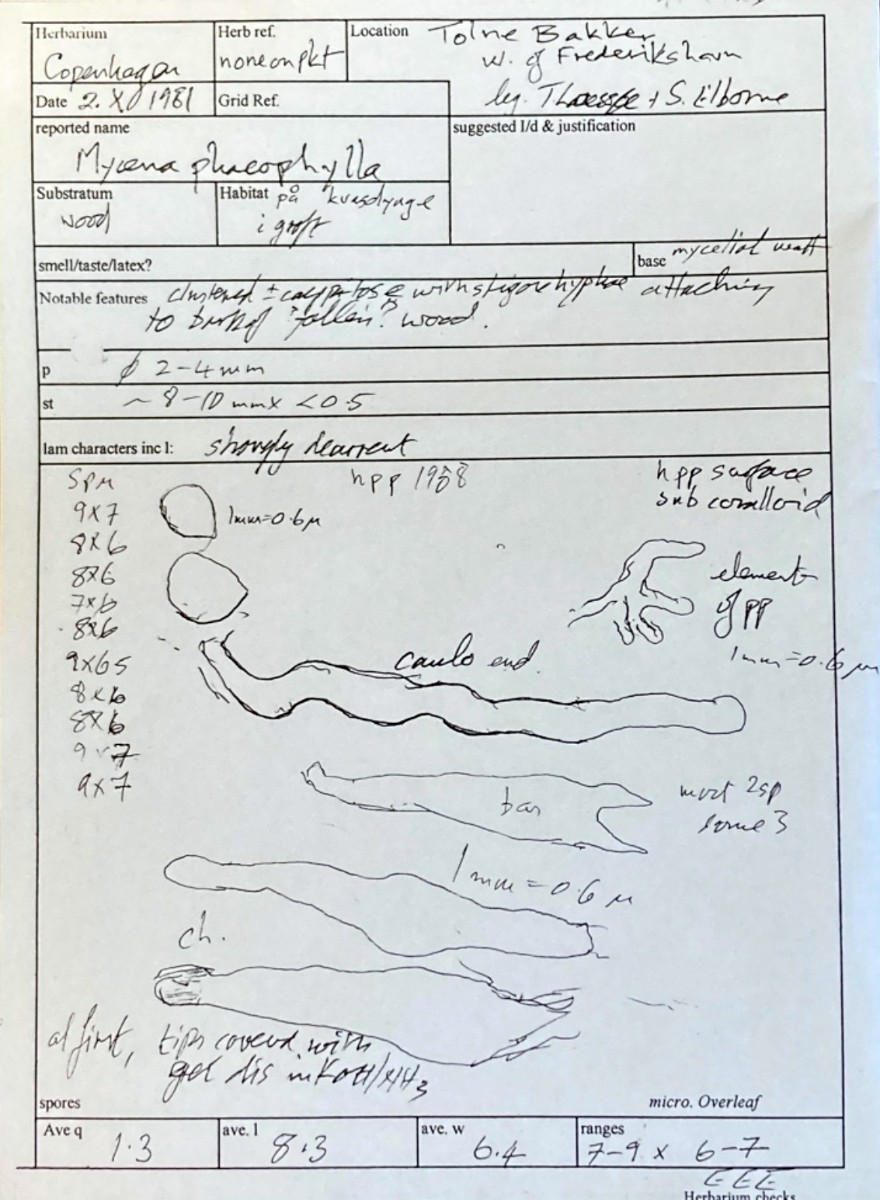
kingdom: Fungi
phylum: Basidiomycota
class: Agaricomycetes
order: Agaricales
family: Porotheleaceae
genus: Phloeomana
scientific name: Phloeomana clavata
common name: brunbladet huesvamp
